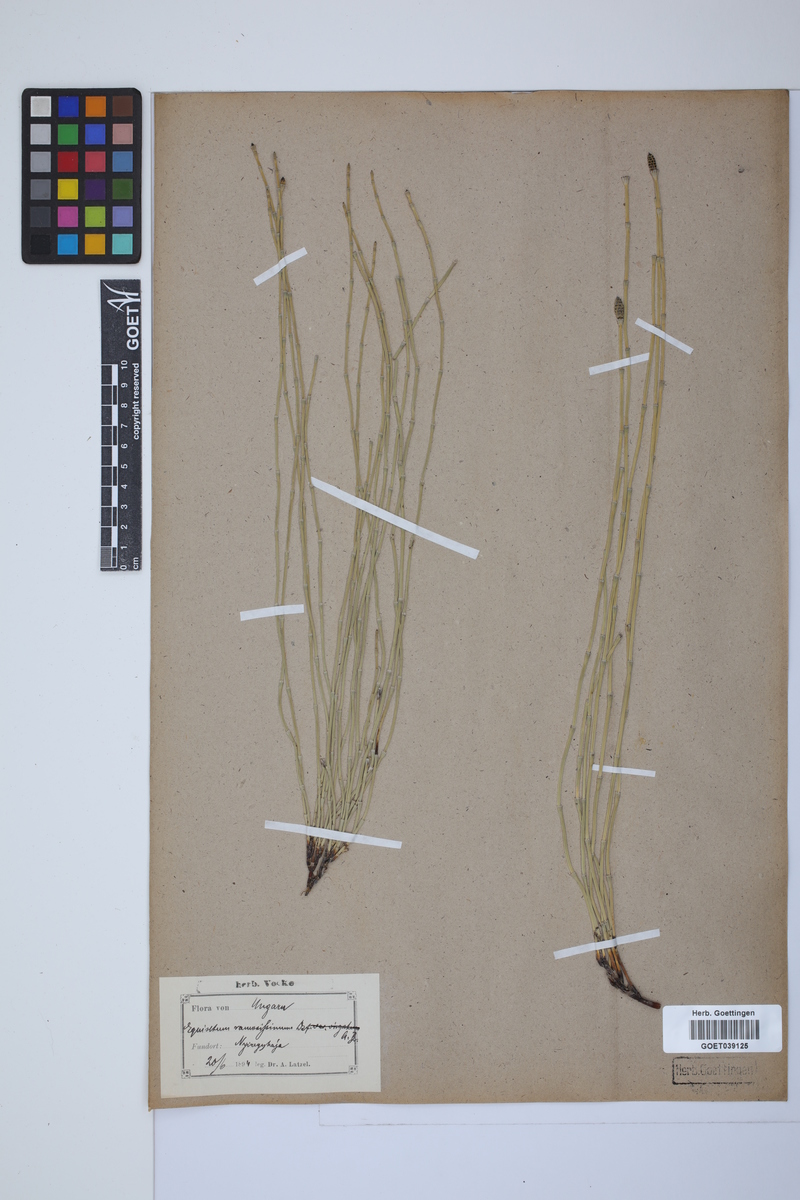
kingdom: Plantae
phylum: Tracheophyta
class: Polypodiopsida
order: Equisetales
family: Equisetaceae
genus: Equisetum
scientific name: Equisetum giganteum
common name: Giant horsetail
